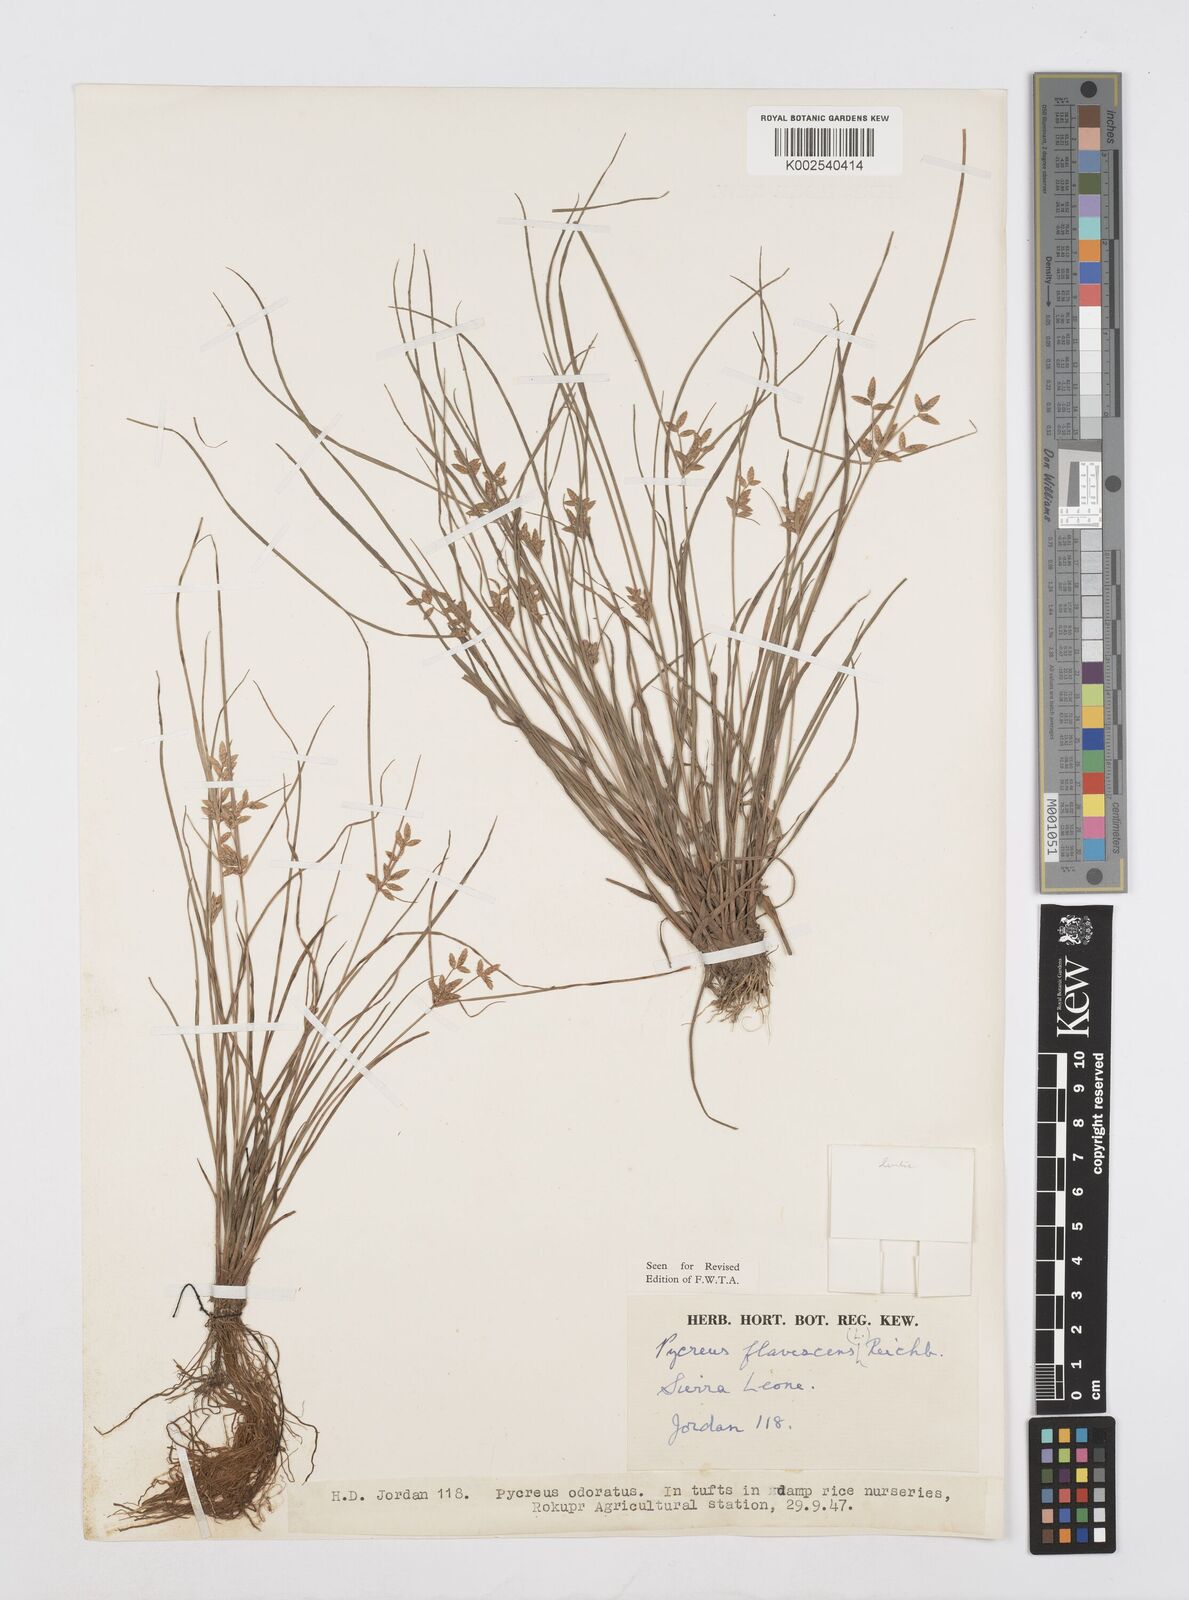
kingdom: Plantae
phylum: Tracheophyta
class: Liliopsida
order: Poales
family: Cyperaceae
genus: Cyperus
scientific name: Cyperus flavescens
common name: Yellow galingale
